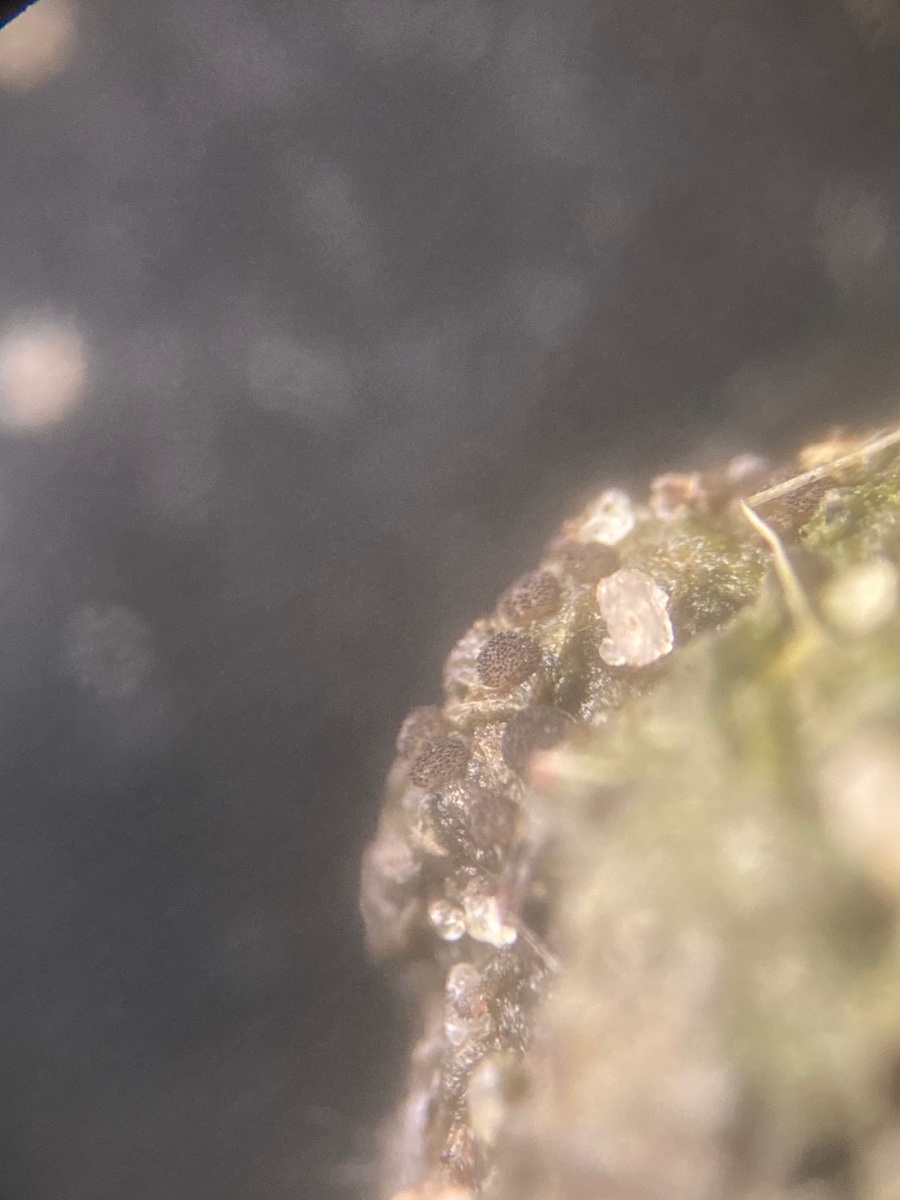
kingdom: Fungi
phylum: Ascomycota
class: Pezizomycetes
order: Pezizales
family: Ascobolaceae
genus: Saccobolus
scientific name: Saccobolus obscurus
